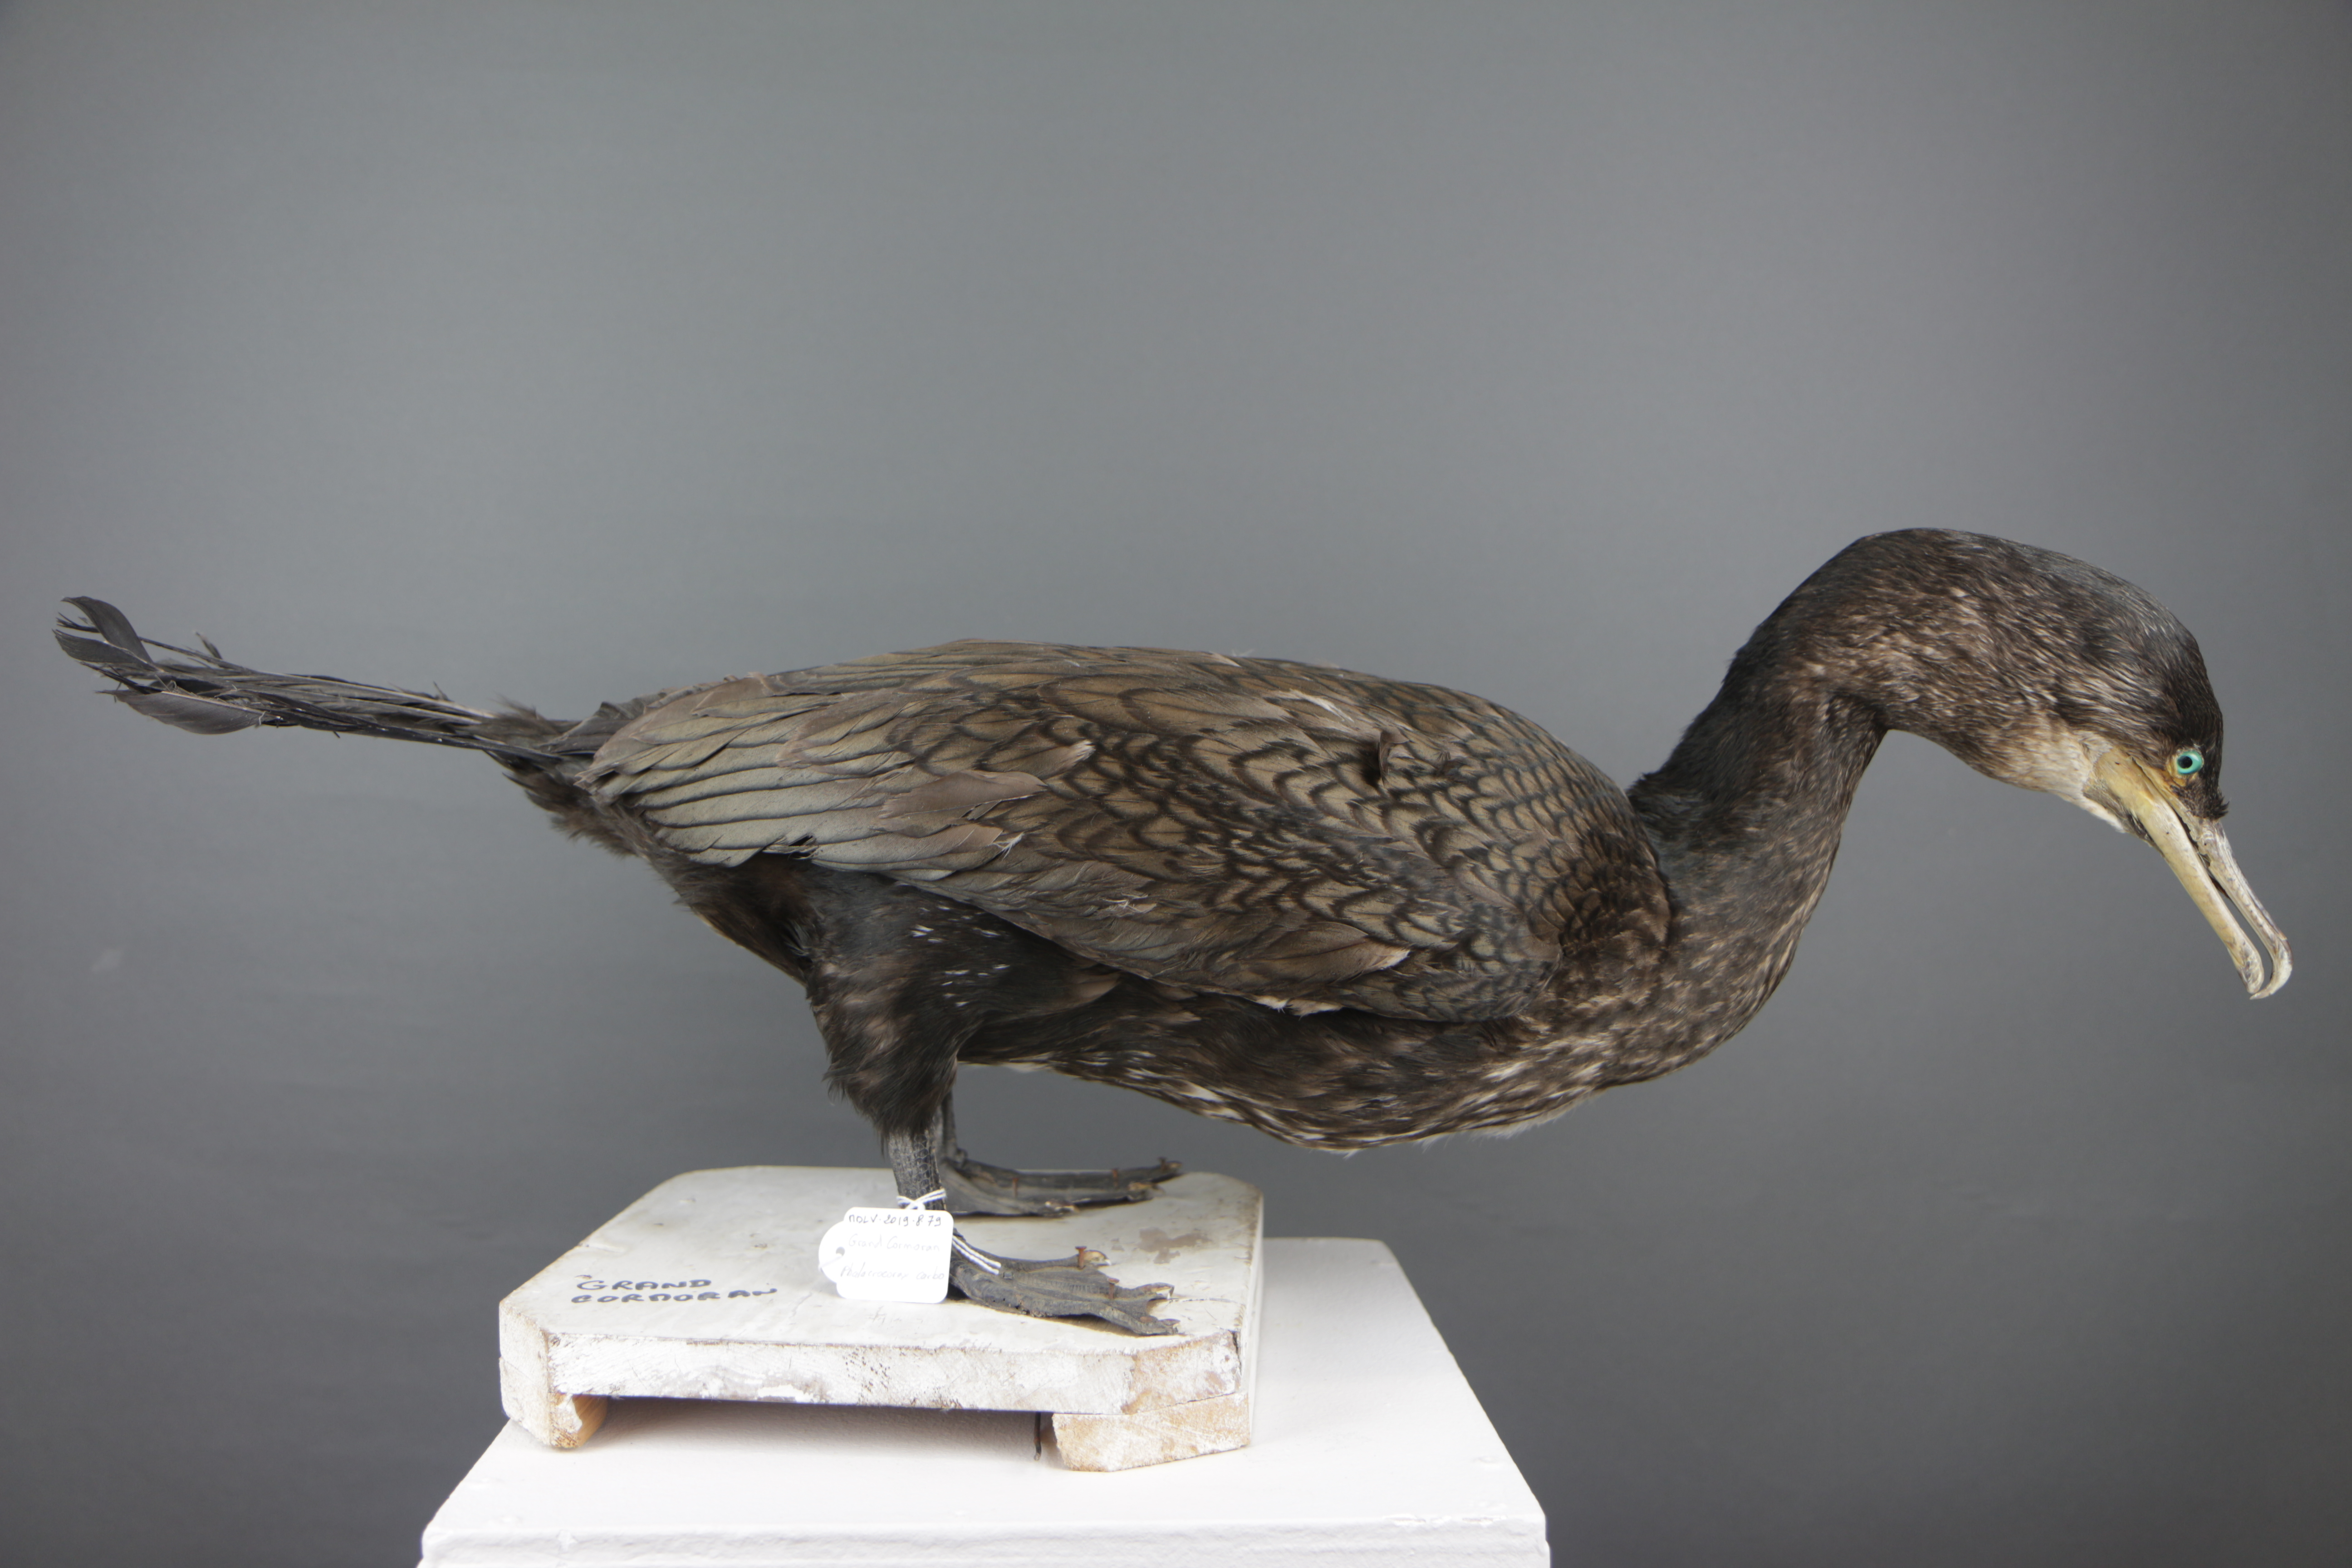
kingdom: Animalia
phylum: Chordata
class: Aves
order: Suliformes
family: Phalacrocoracidae
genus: Phalacrocorax
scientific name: Phalacrocorax carbo
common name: Great cormorant
